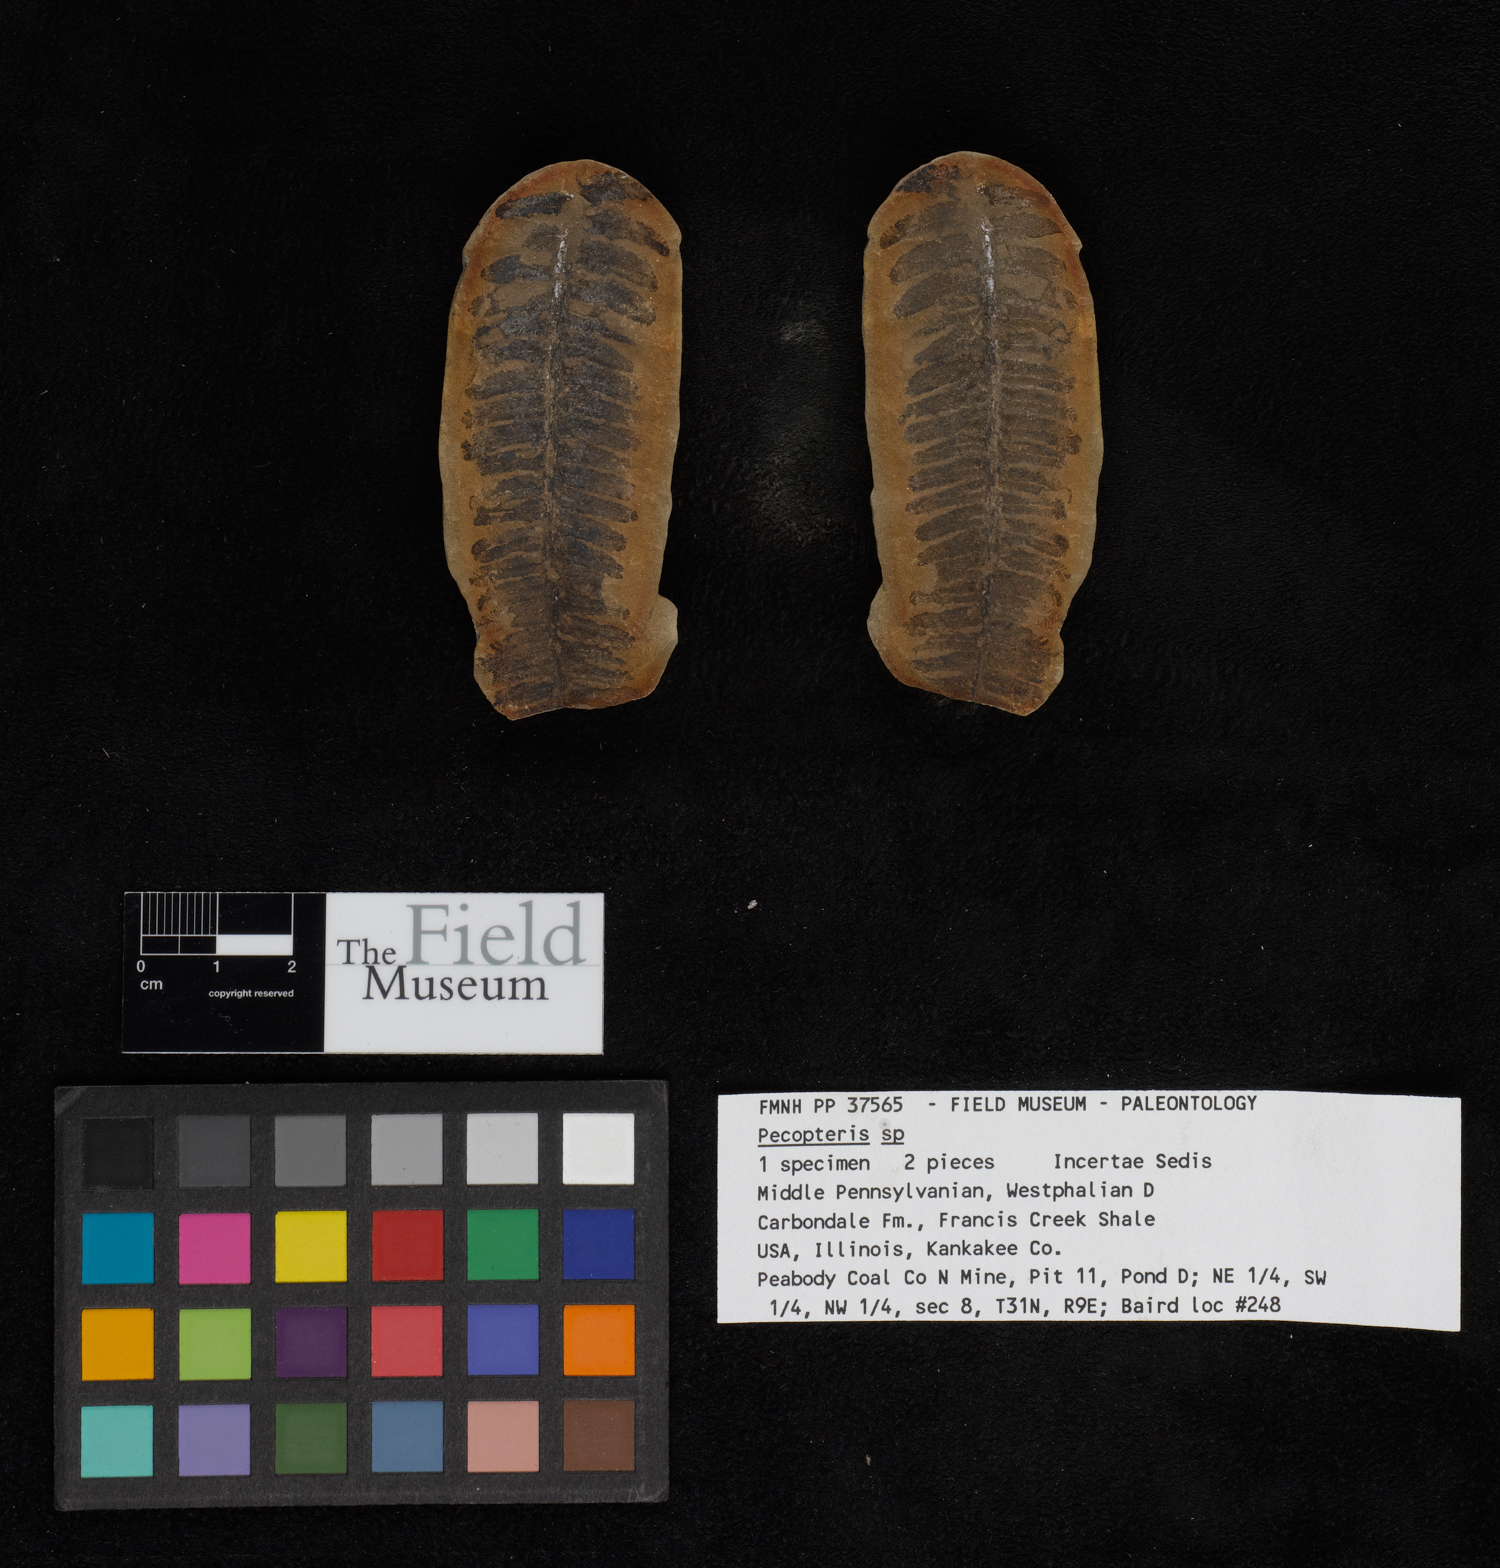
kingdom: Plantae
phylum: Tracheophyta
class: Polypodiopsida
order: Marattiales
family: Asterothecaceae
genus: Pecopteris
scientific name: Pecopteris
